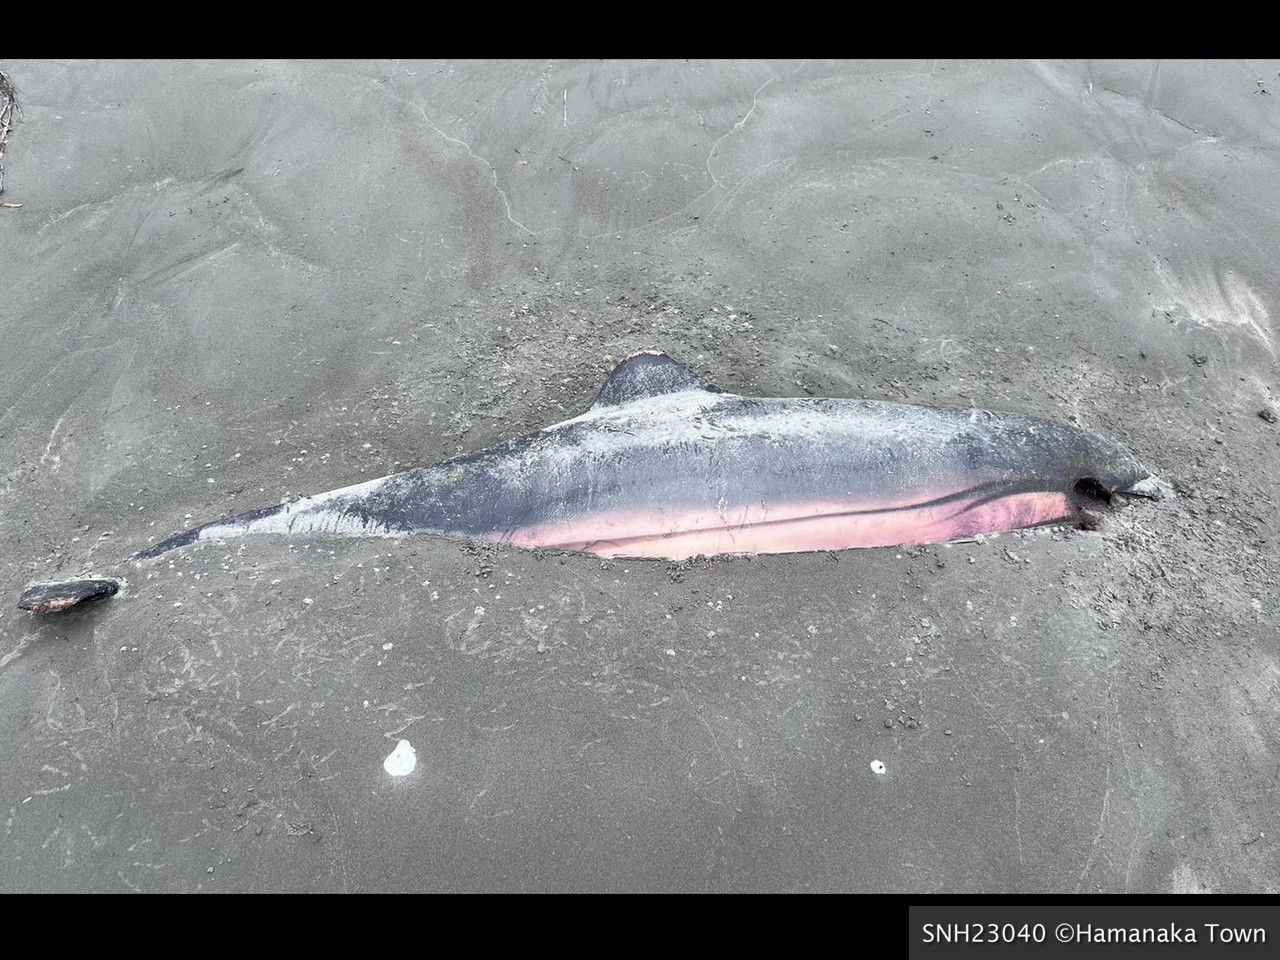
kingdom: Animalia
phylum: Chordata
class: Mammalia
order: Cetacea
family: Delphinidae
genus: Stenella
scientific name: Stenella coeruleoalba
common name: Striped dolphin
